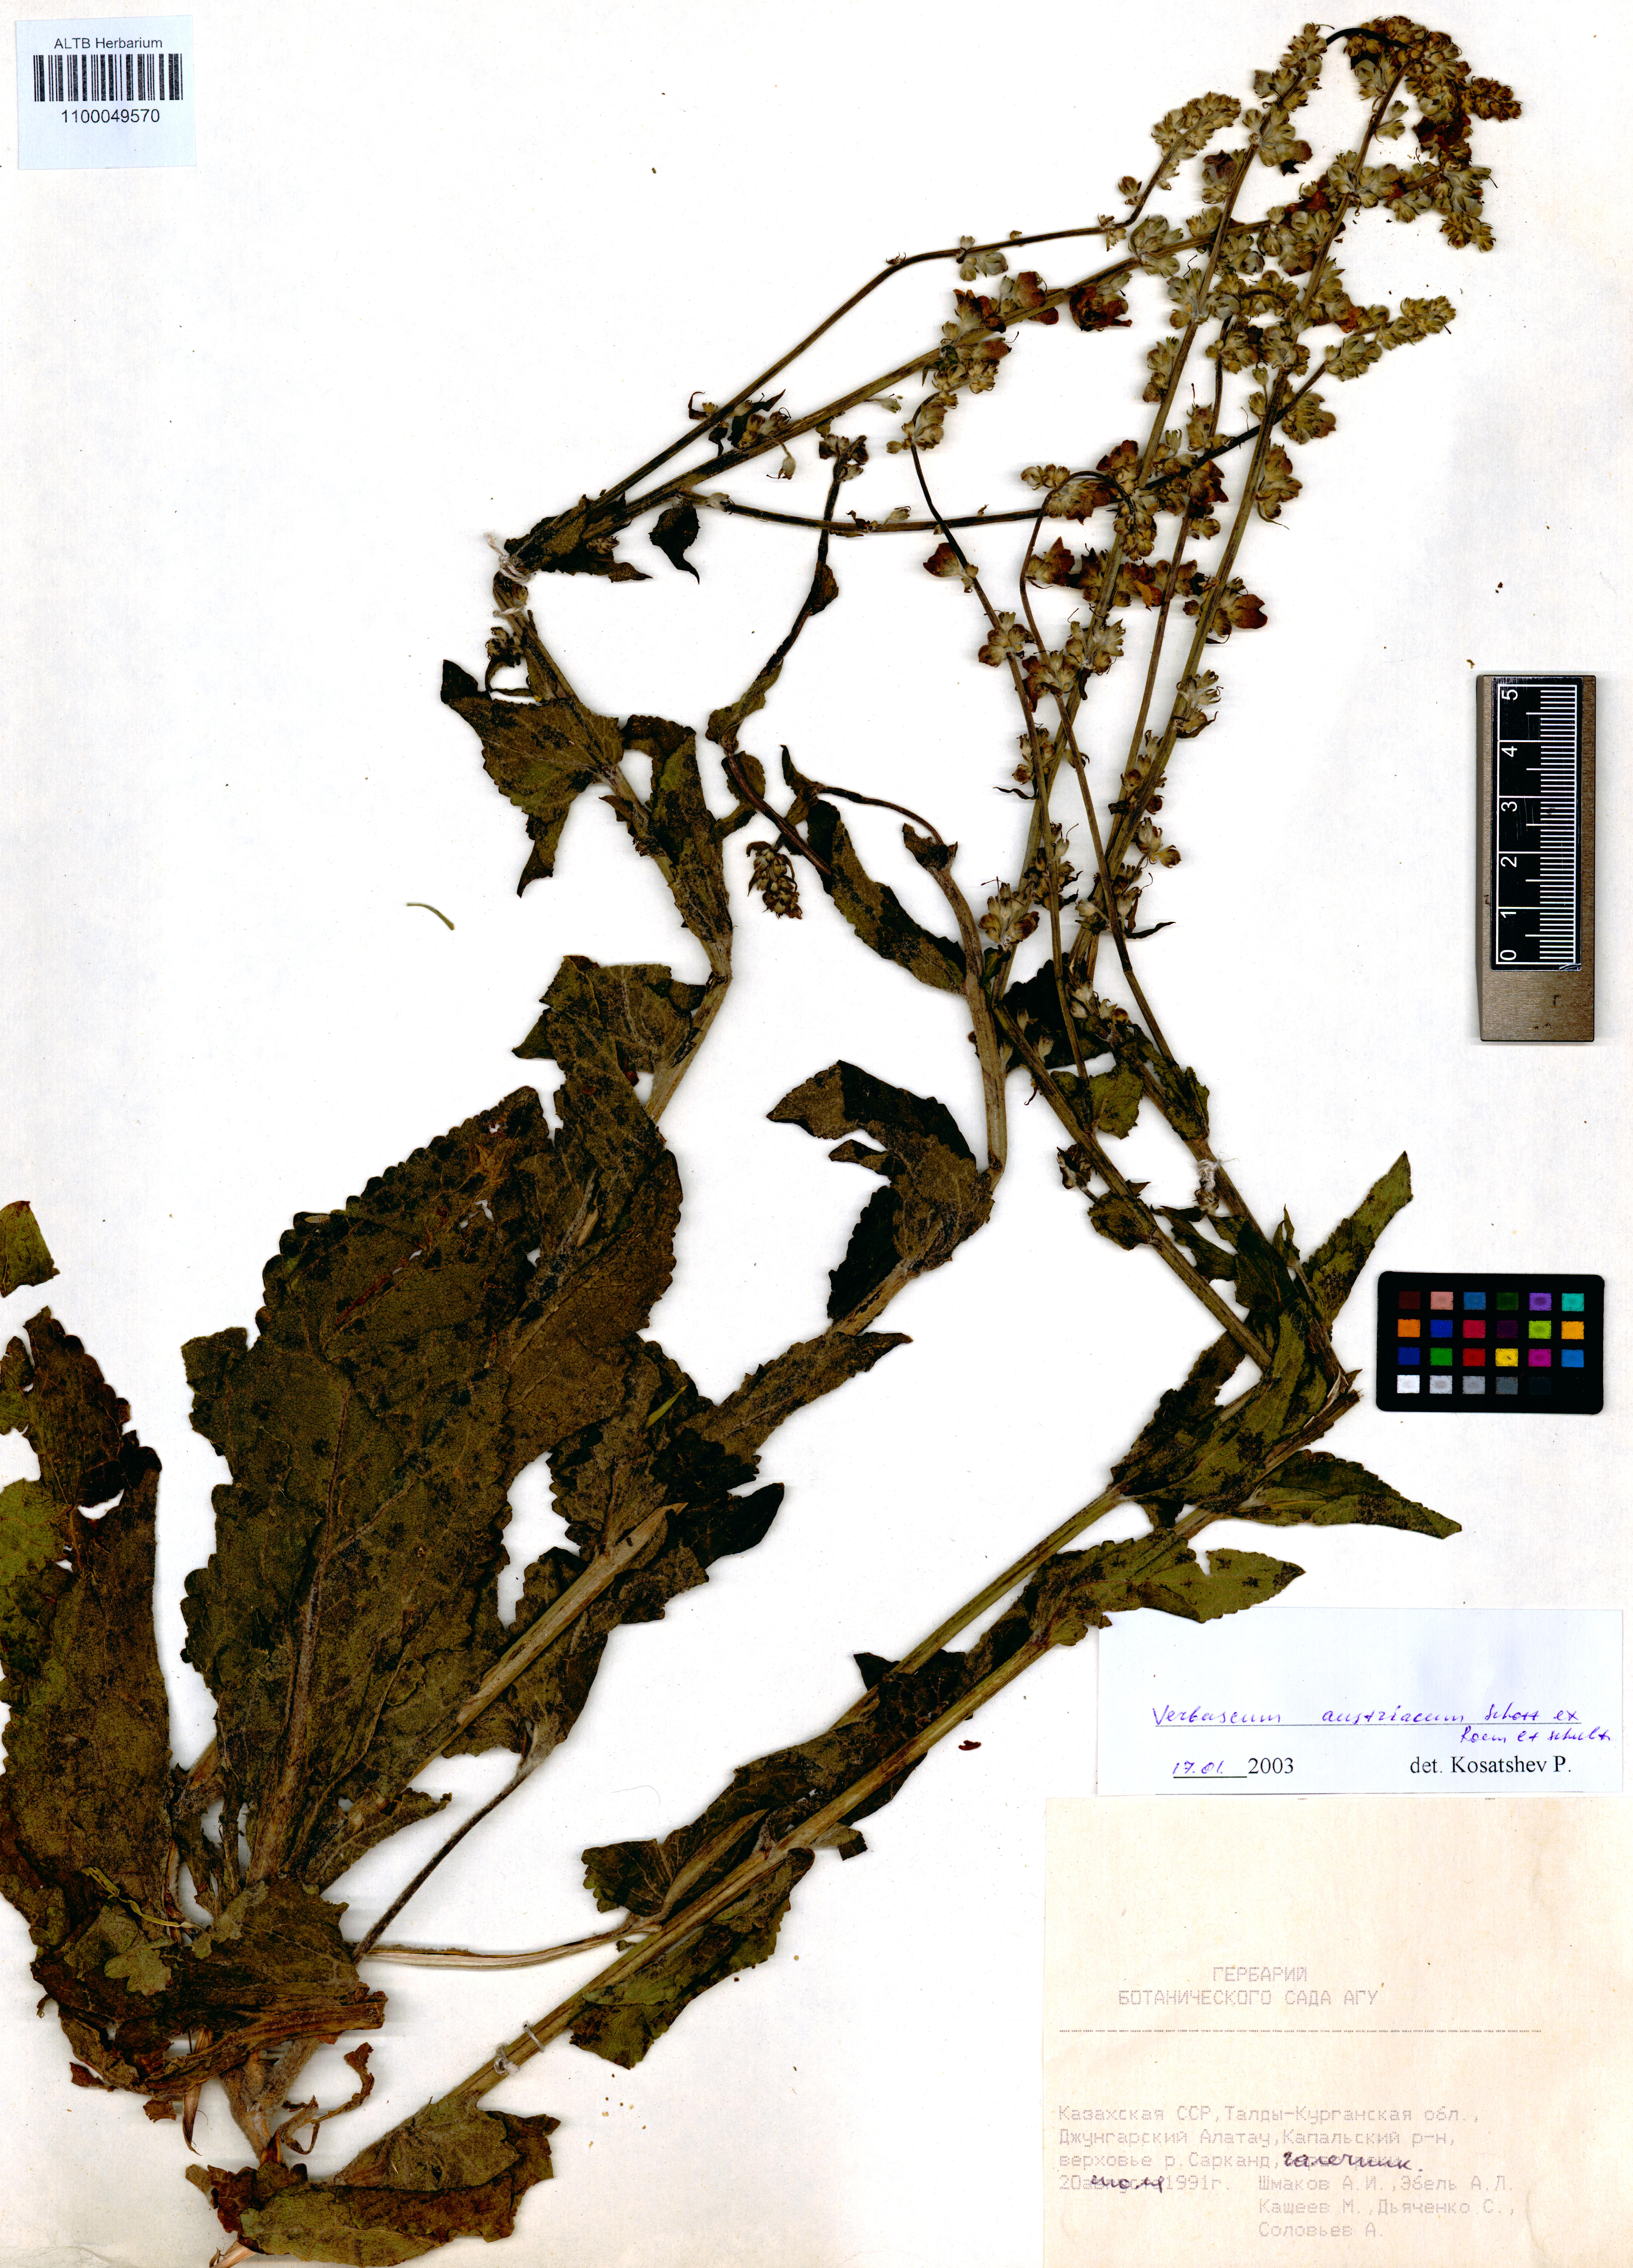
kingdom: Plantae
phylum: Tracheophyta
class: Magnoliopsida
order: Lamiales
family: Scrophulariaceae
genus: Verbascum
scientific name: Verbascum chaixii
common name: Nettle-leaved mullein
